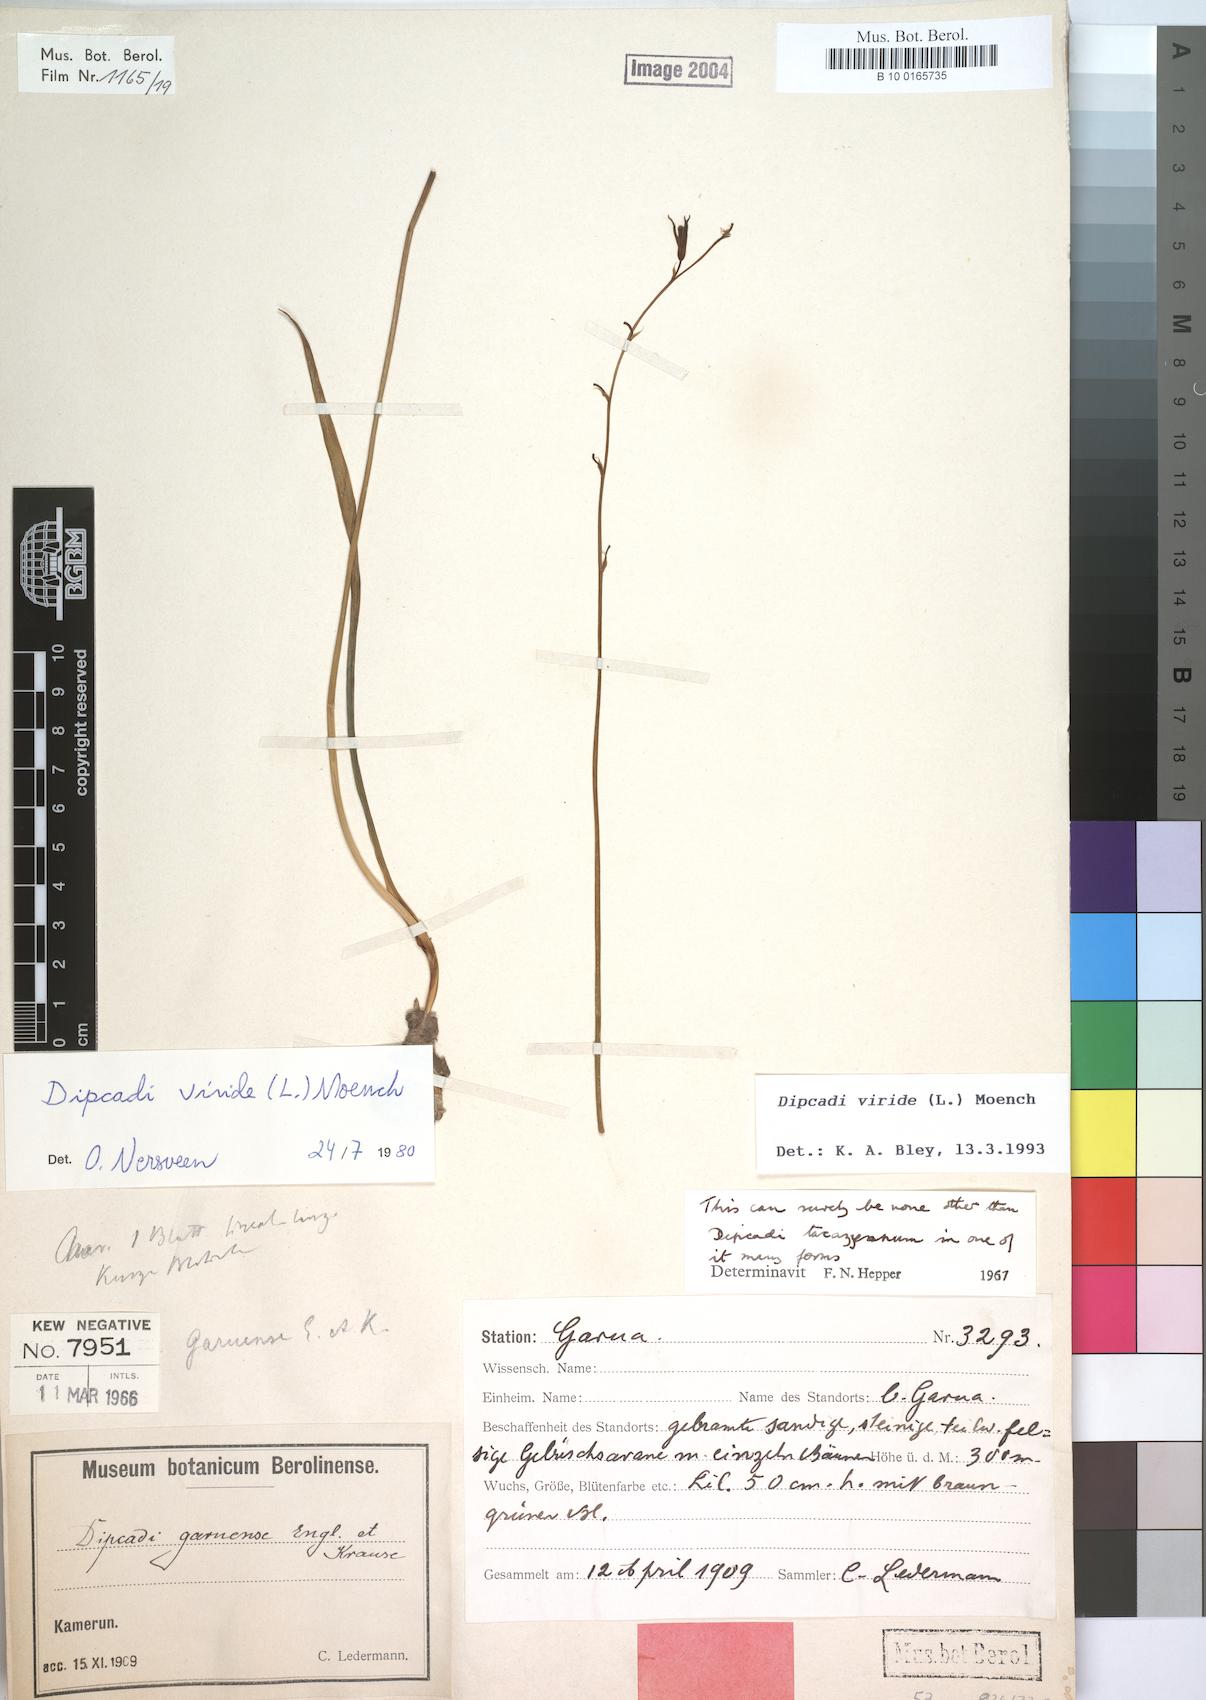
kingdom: Plantae
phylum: Tracheophyta
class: Liliopsida
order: Asparagales
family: Asparagaceae
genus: Dipcadi
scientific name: Dipcadi viride
